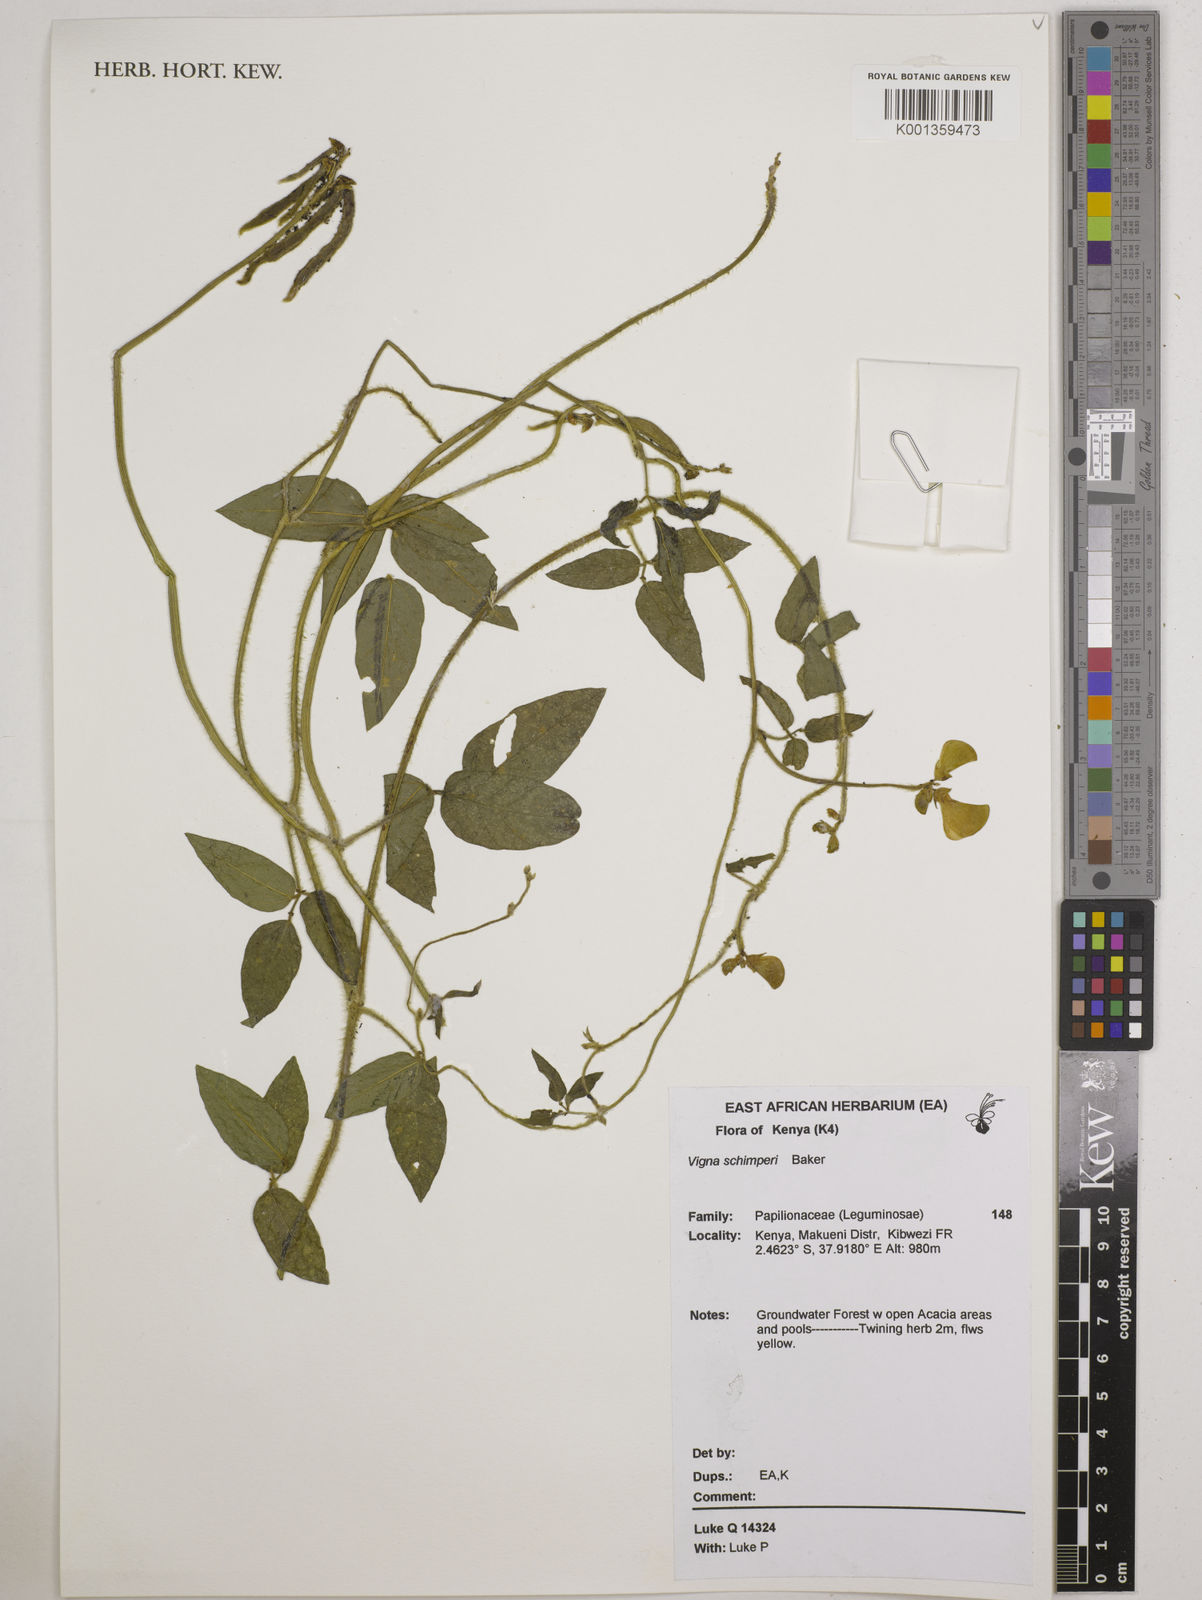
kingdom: Plantae
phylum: Tracheophyta
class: Magnoliopsida
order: Fabales
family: Fabaceae
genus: Vigna
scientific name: Vigna schimperi
